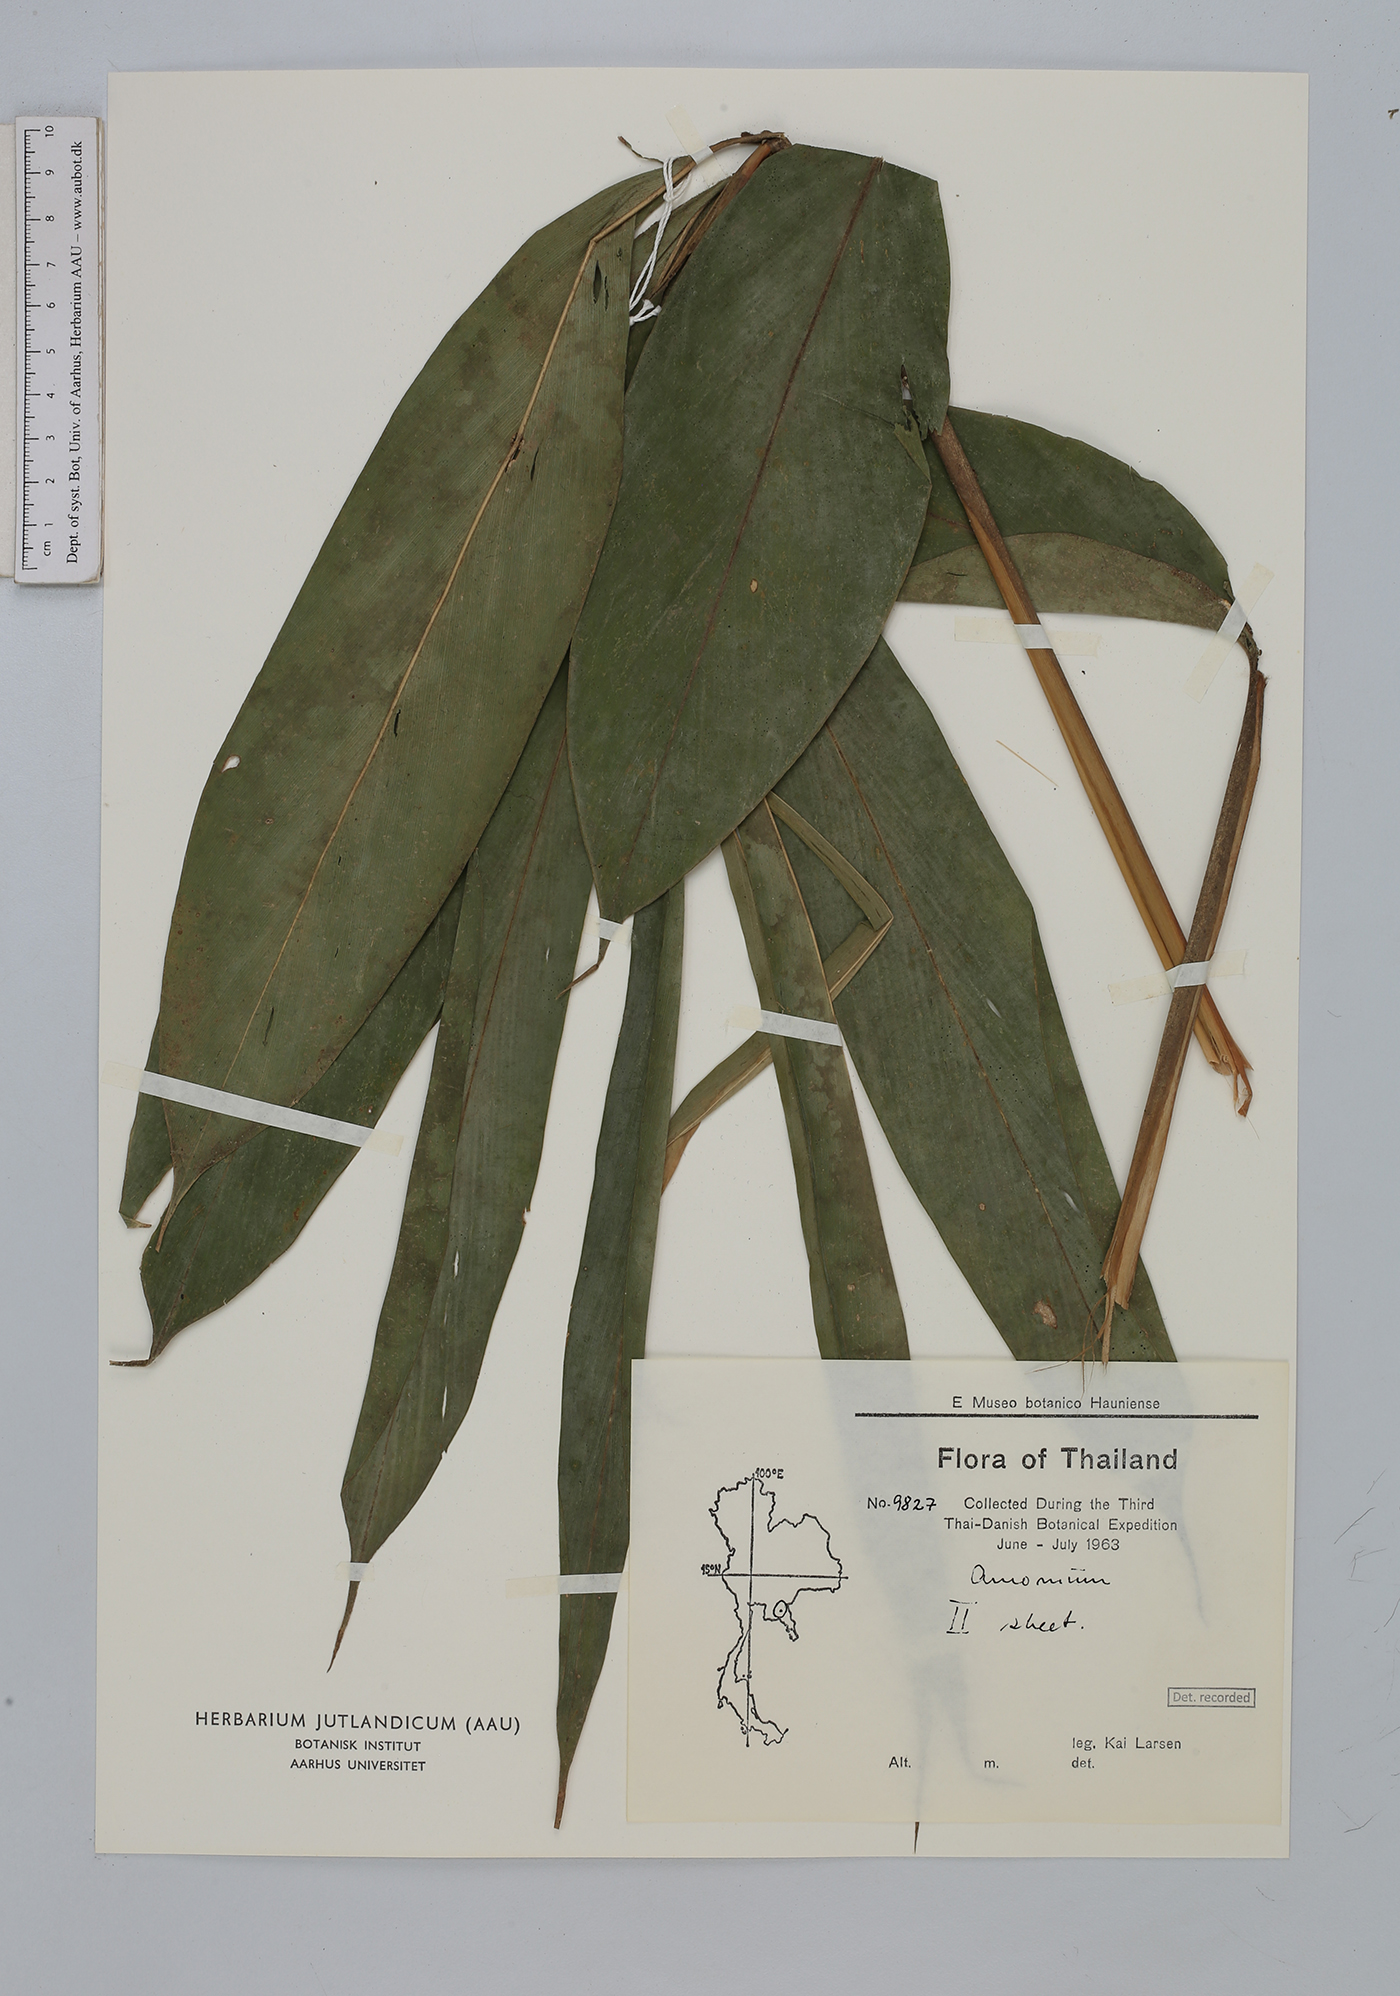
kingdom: Plantae
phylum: Tracheophyta
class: Liliopsida
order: Zingiberales
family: Zingiberaceae
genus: Amomum
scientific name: Amomum
